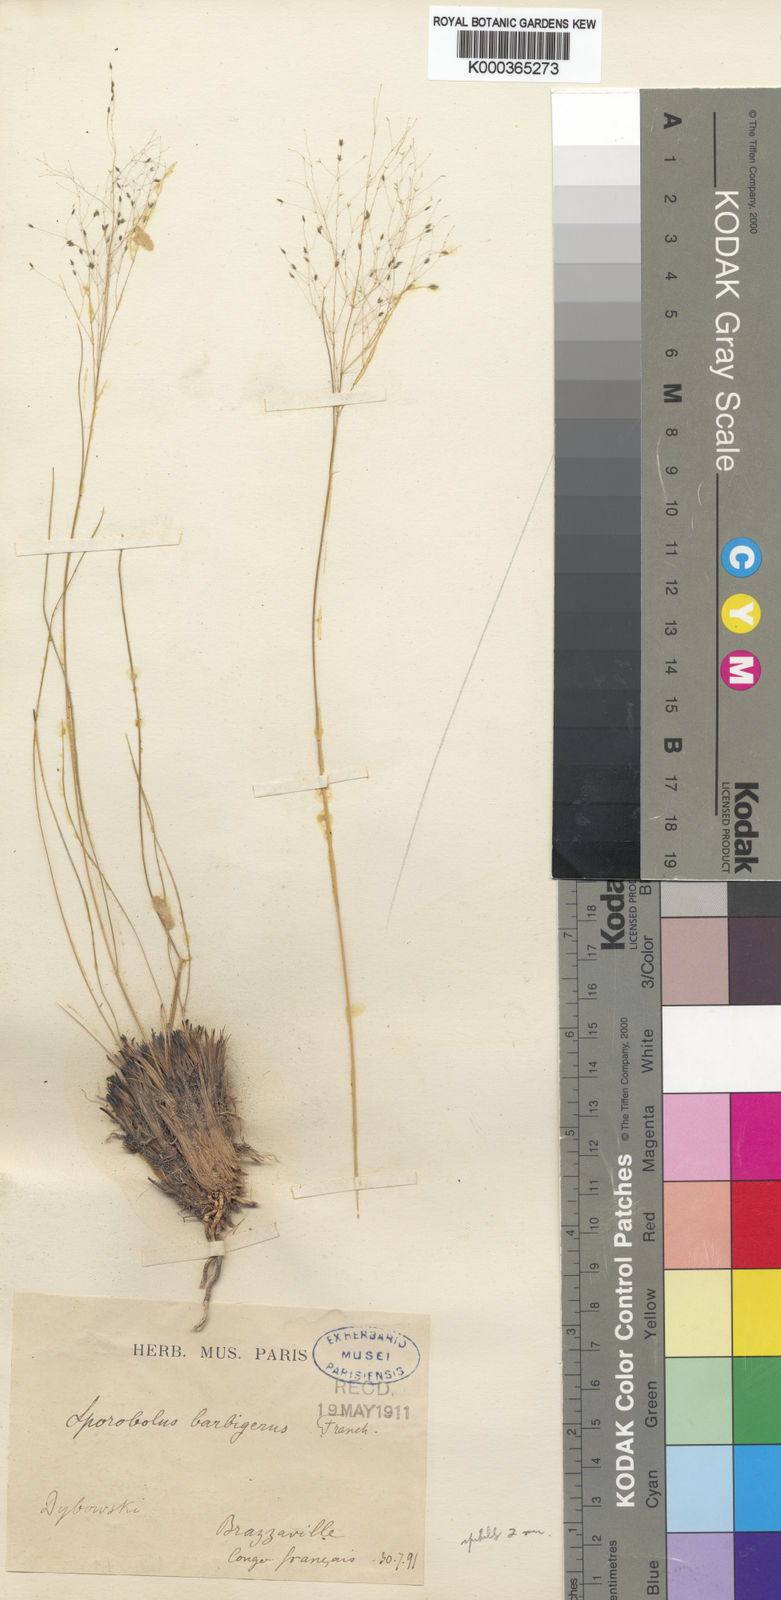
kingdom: Plantae
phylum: Tracheophyta
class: Liliopsida
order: Poales
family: Poaceae
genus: Sporobolus
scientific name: Sporobolus subtilis
